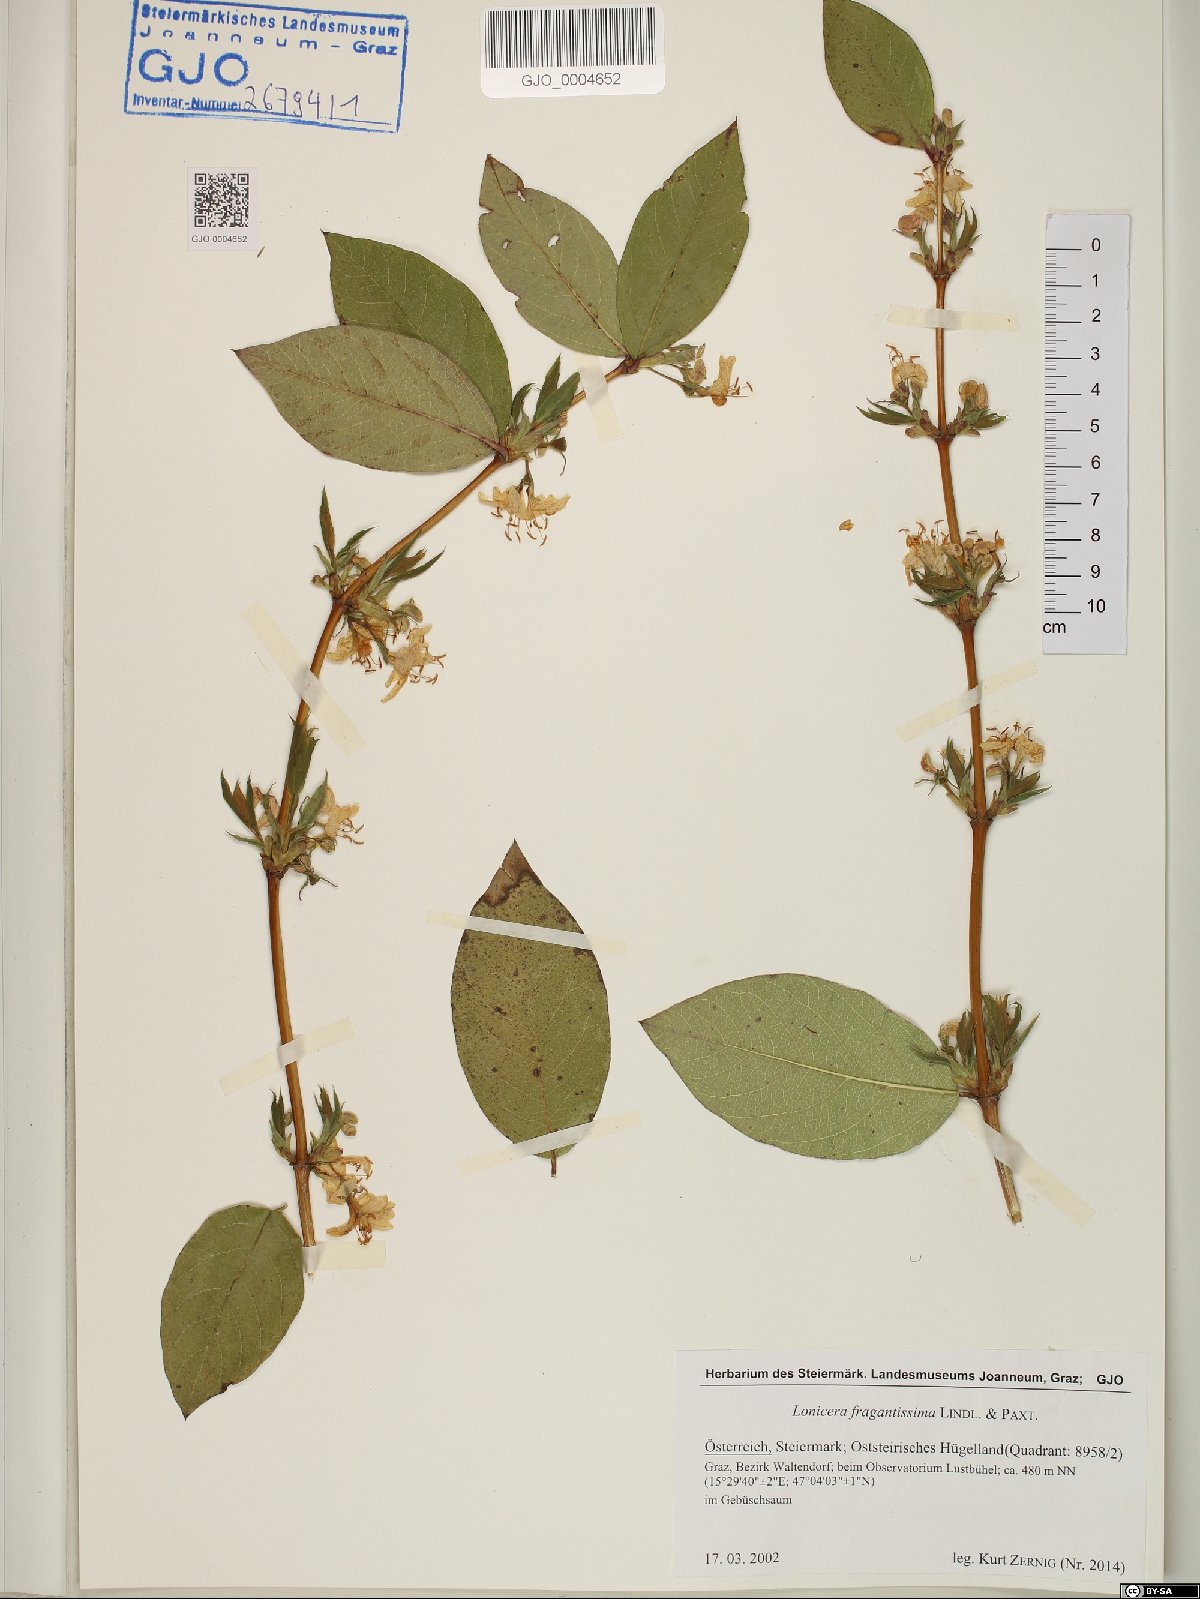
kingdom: Plantae
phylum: Tracheophyta
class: Magnoliopsida
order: Dipsacales
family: Caprifoliaceae
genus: Lonicera
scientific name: Lonicera fragrantissima
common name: Fragrant honeysuckle
